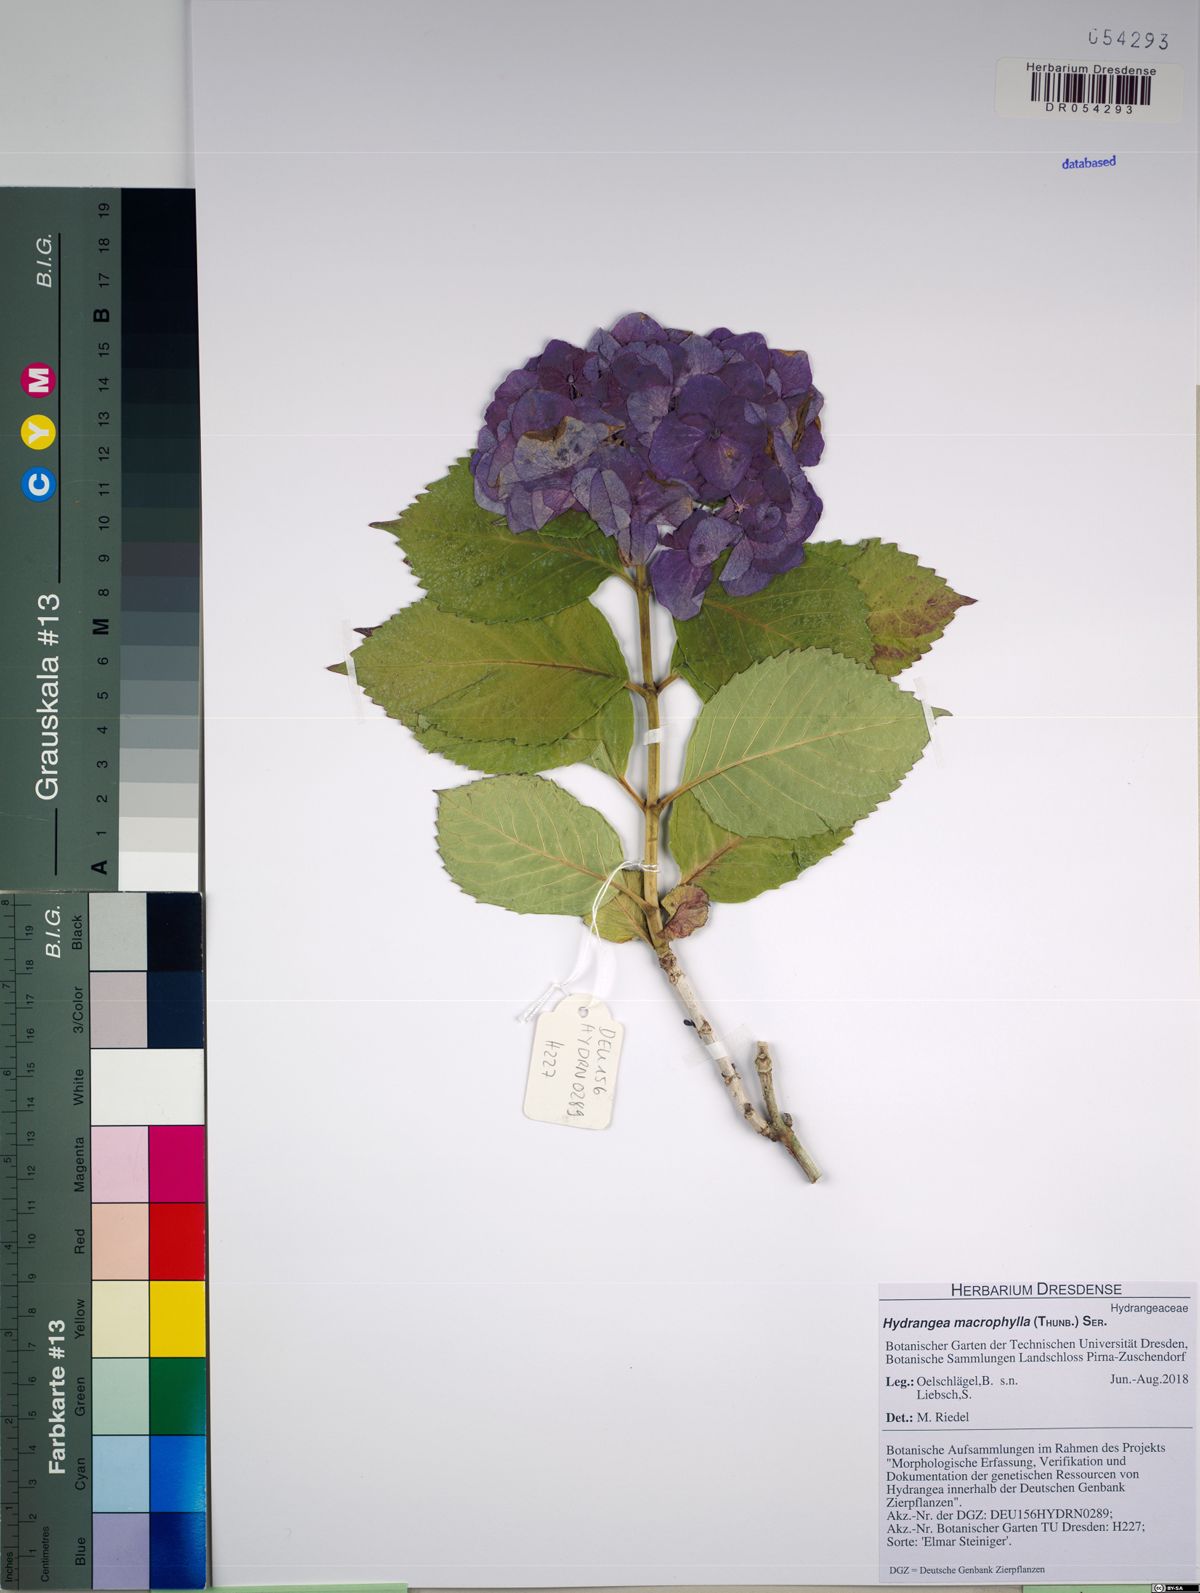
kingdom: Plantae
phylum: Tracheophyta
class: Magnoliopsida
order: Cornales
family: Hydrangeaceae
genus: Hydrangea
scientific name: Hydrangea macrophylla
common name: Hydrangea
